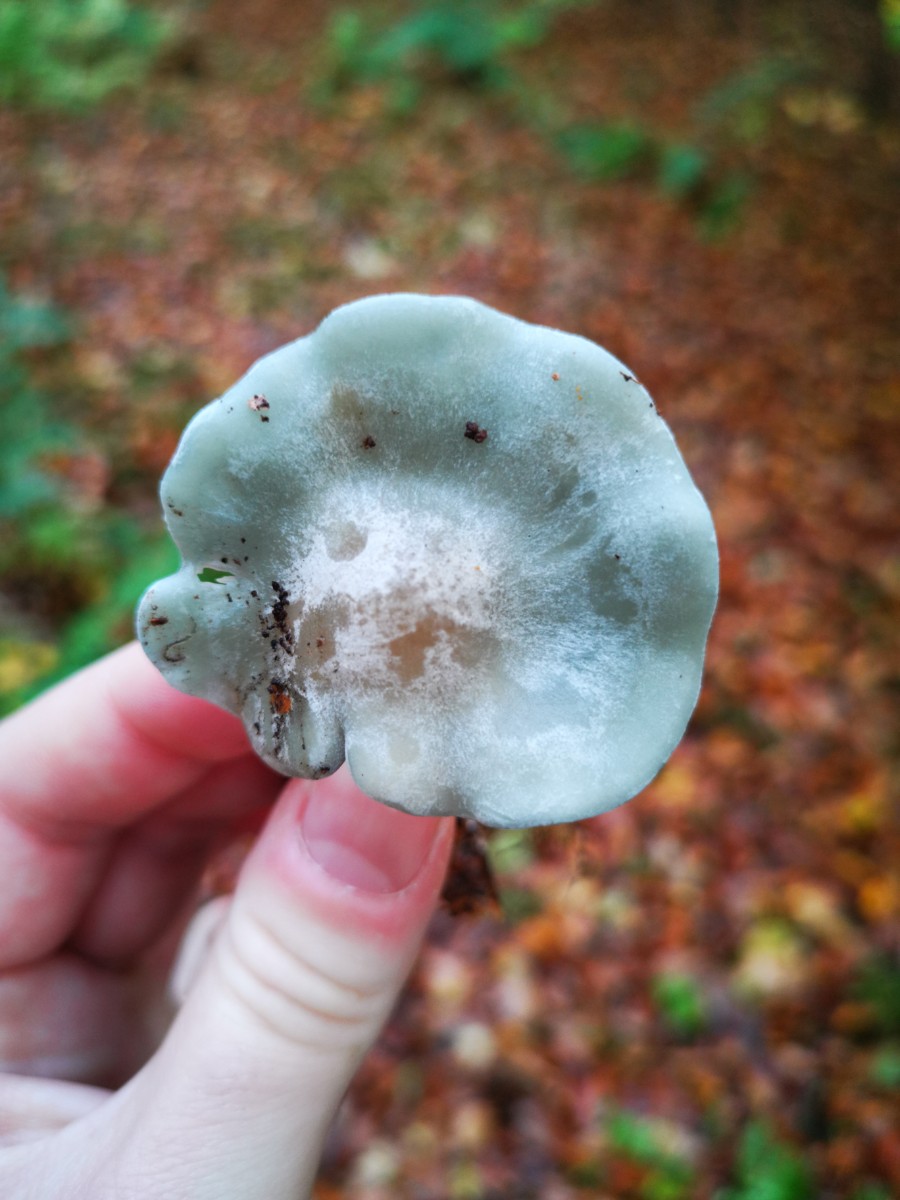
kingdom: Fungi
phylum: Basidiomycota
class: Agaricomycetes
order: Agaricales
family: Tricholomataceae
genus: Clitocybe
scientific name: Clitocybe odora
